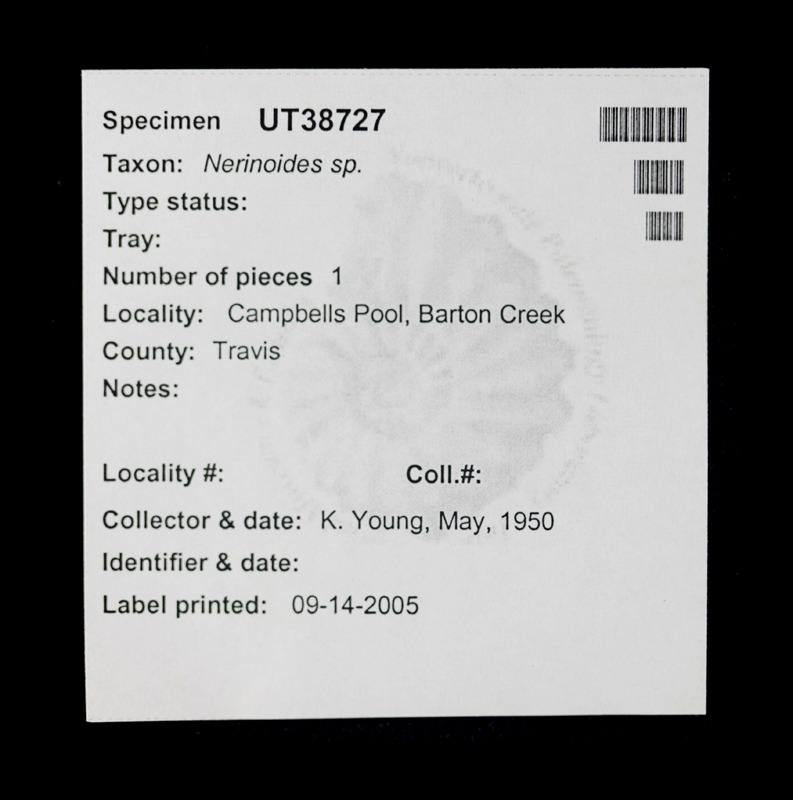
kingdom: Animalia
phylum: Mollusca
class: Gastropoda
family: Nerineidae
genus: Nerinoides
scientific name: Nerinoides
